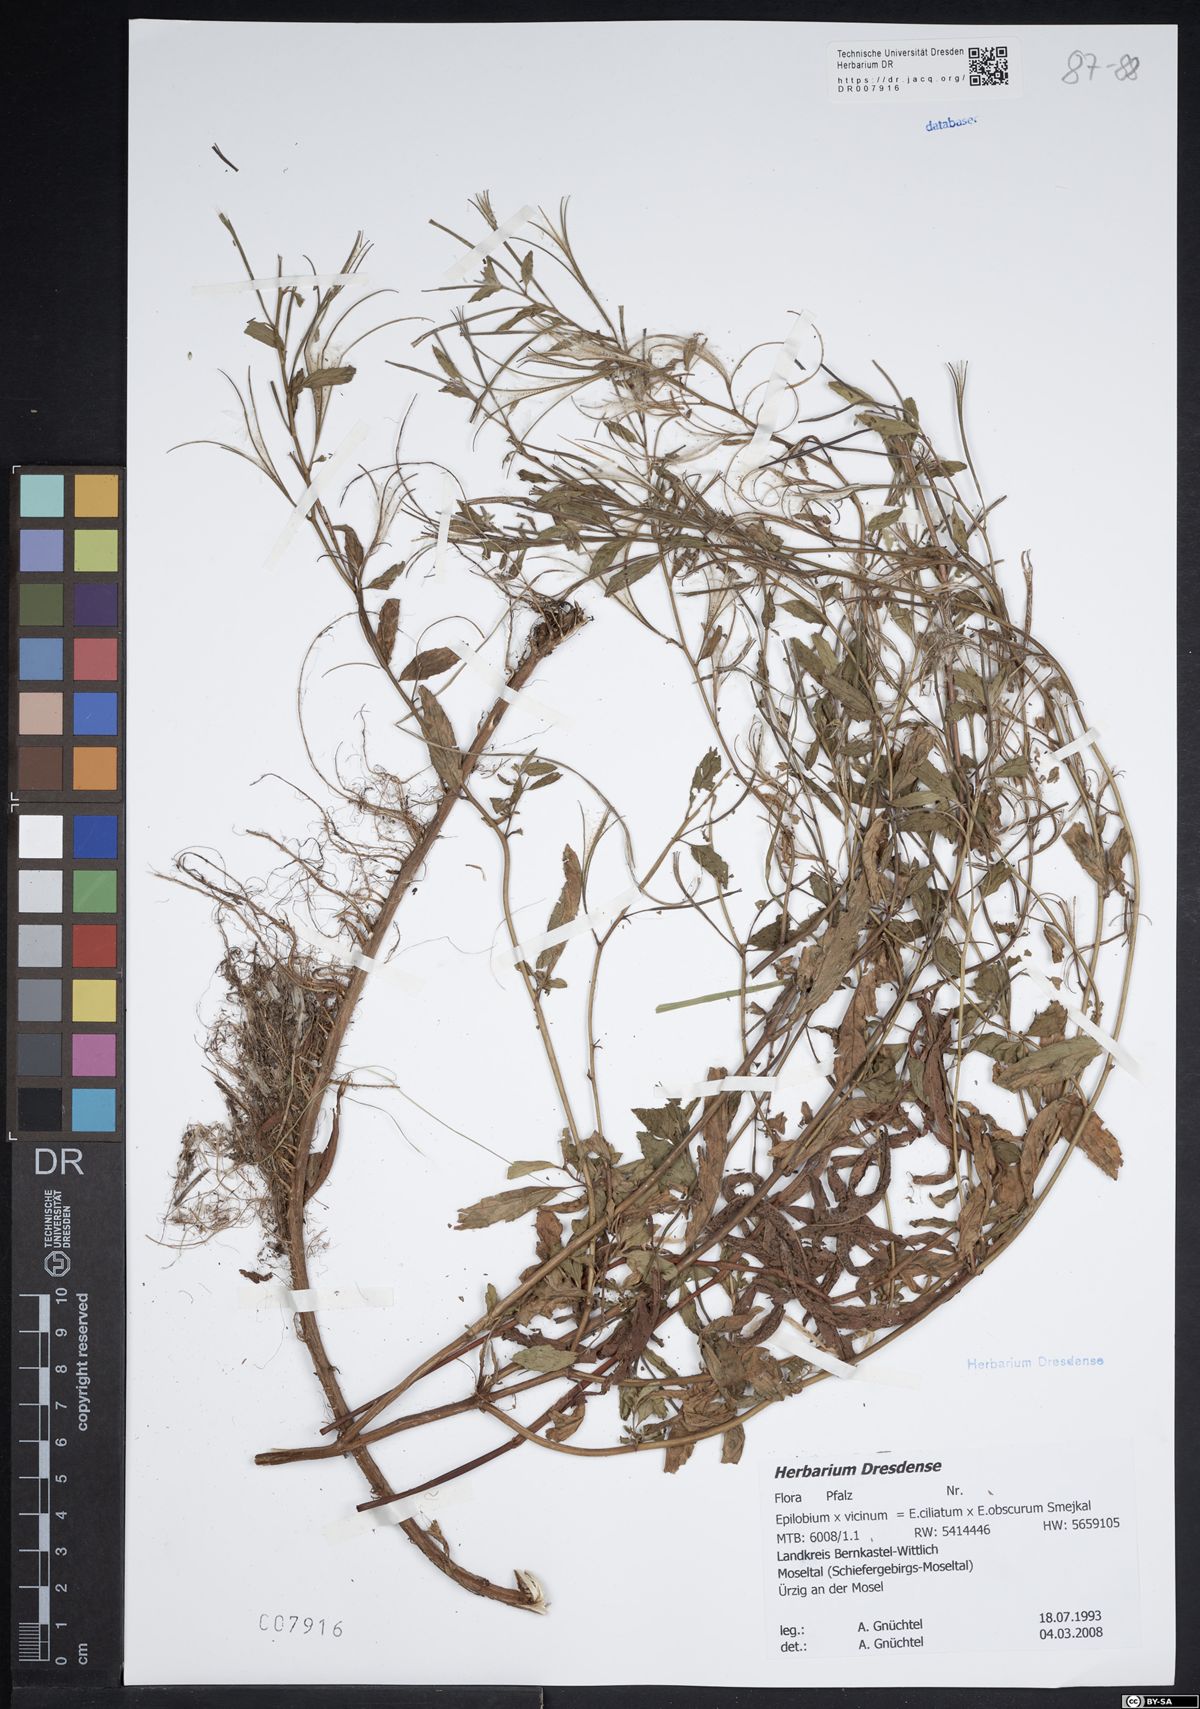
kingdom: Plantae
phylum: Tracheophyta
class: Magnoliopsida
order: Myrtales
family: Onagraceae
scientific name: Onagraceae
